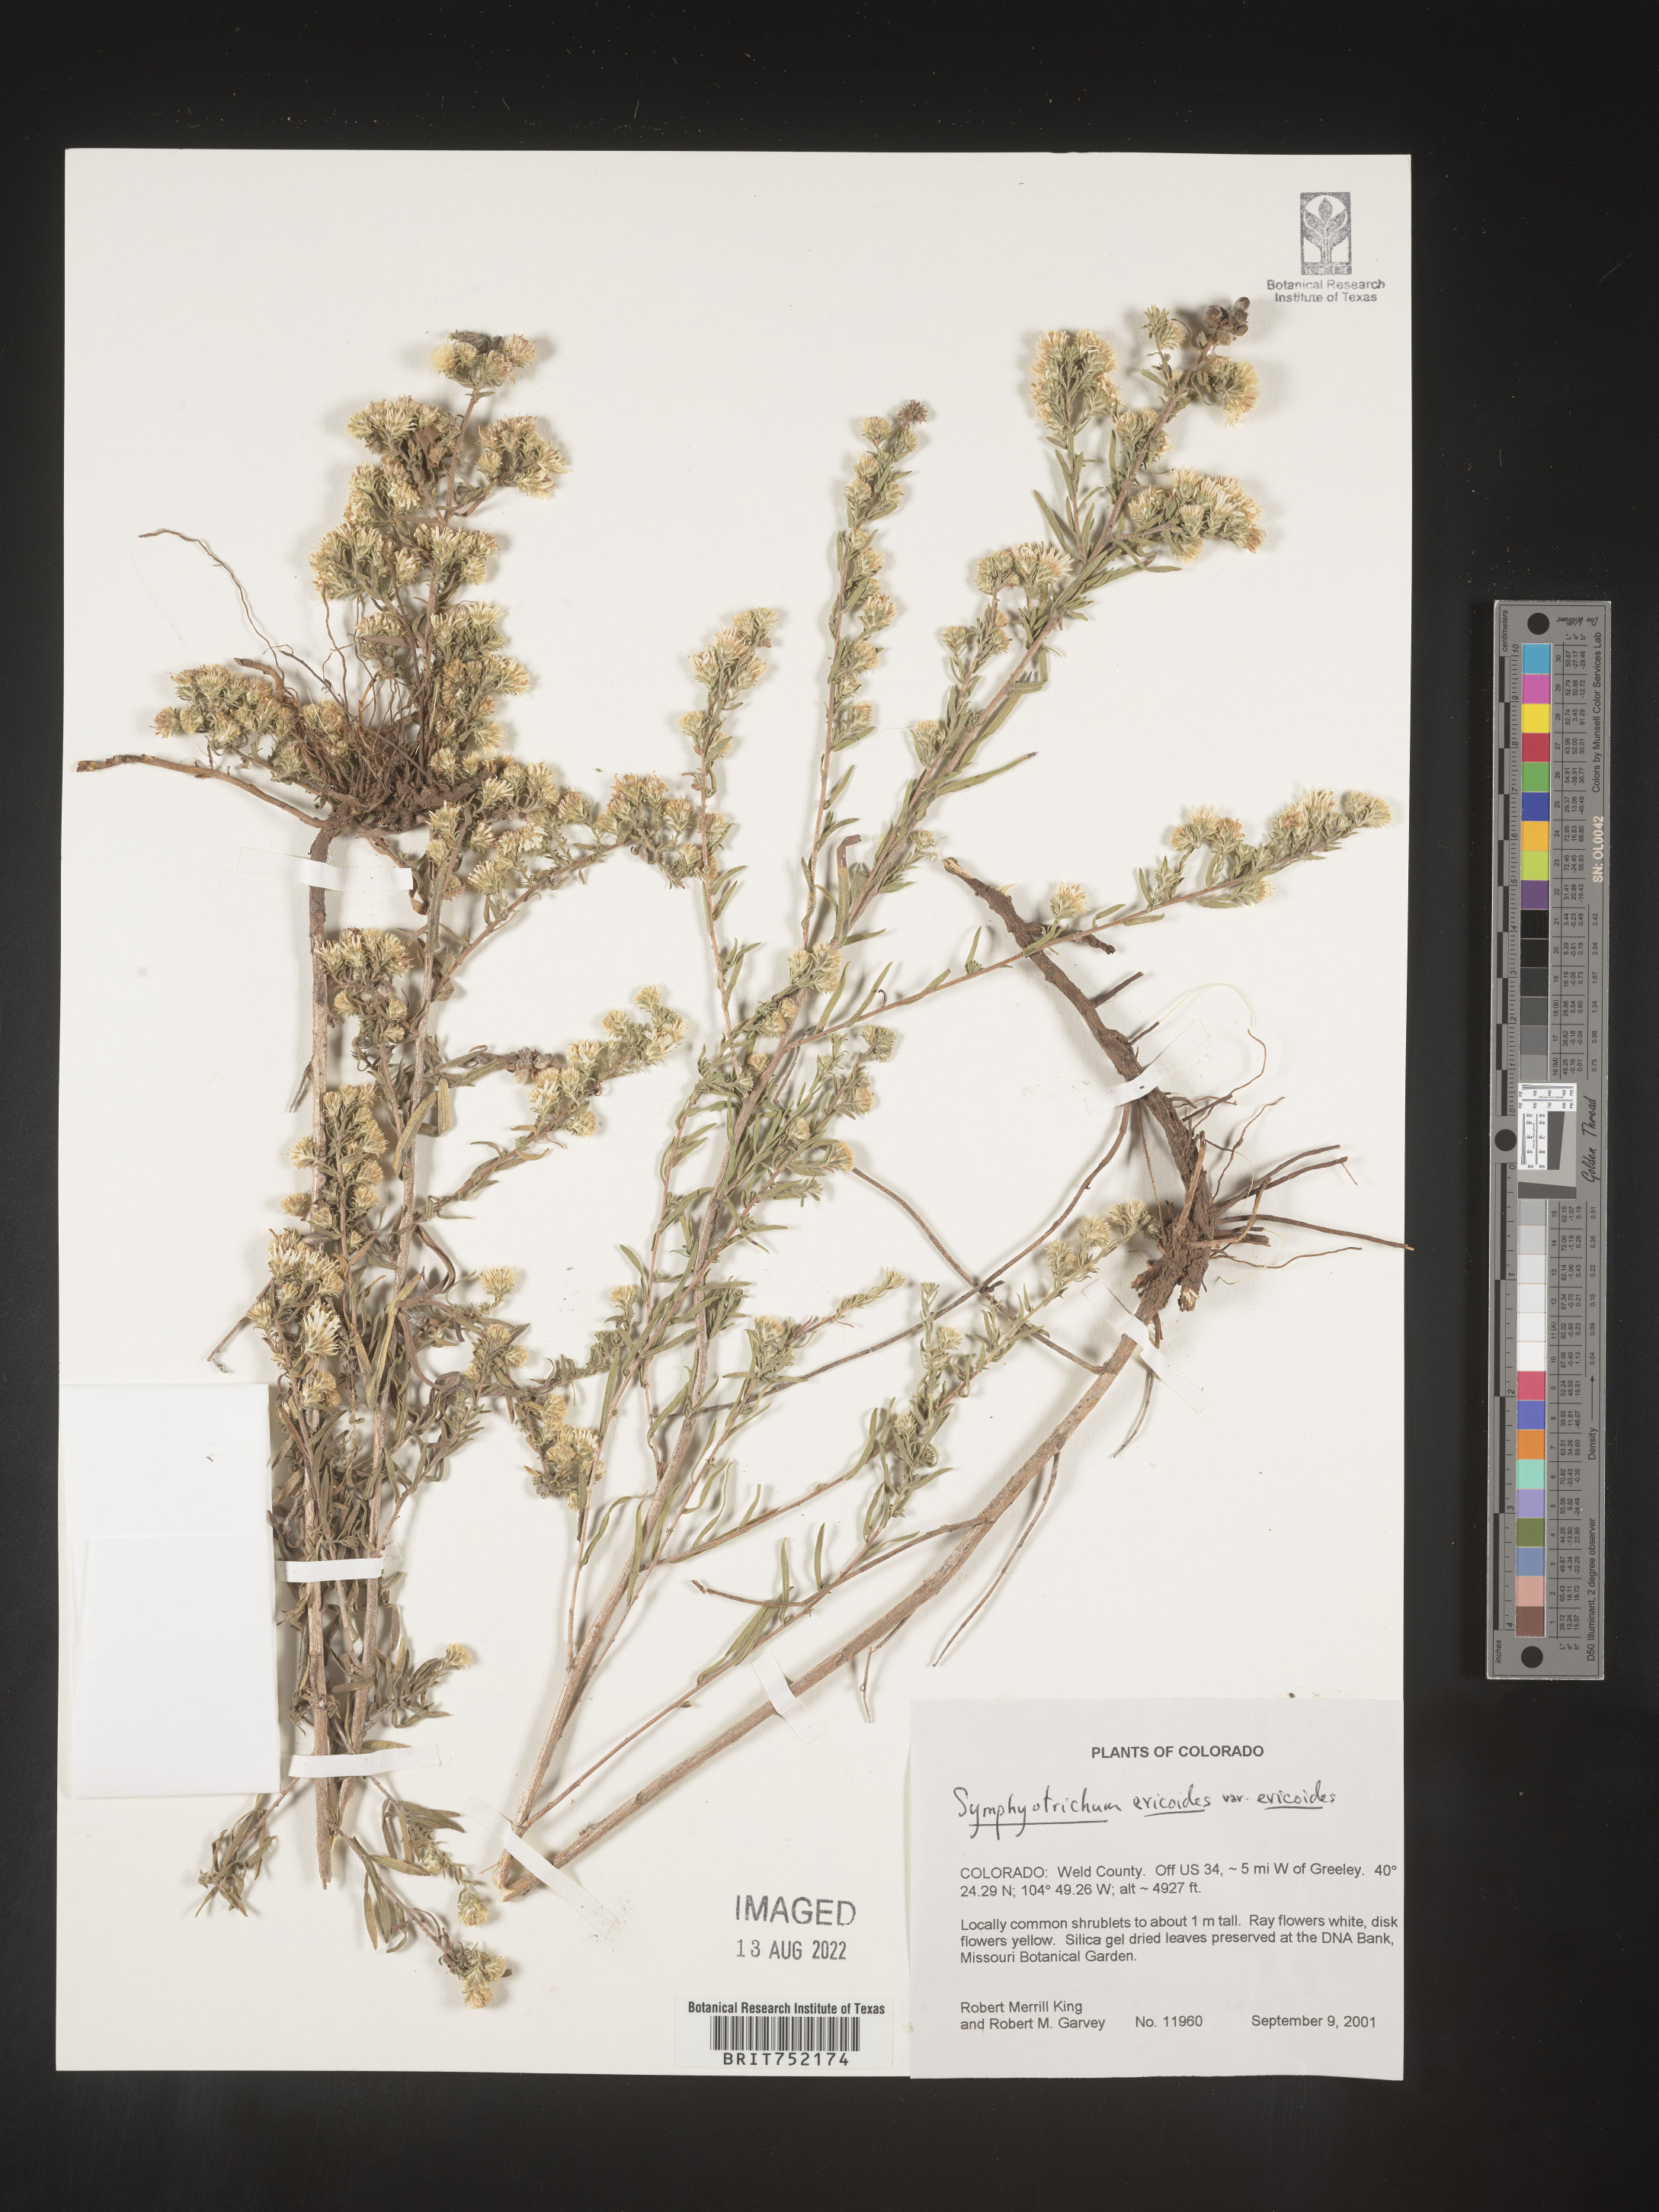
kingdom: Plantae
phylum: Tracheophyta
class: Magnoliopsida
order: Asterales
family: Asteraceae
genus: Symphyotrichum
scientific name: Symphyotrichum ericoides
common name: Heath aster
